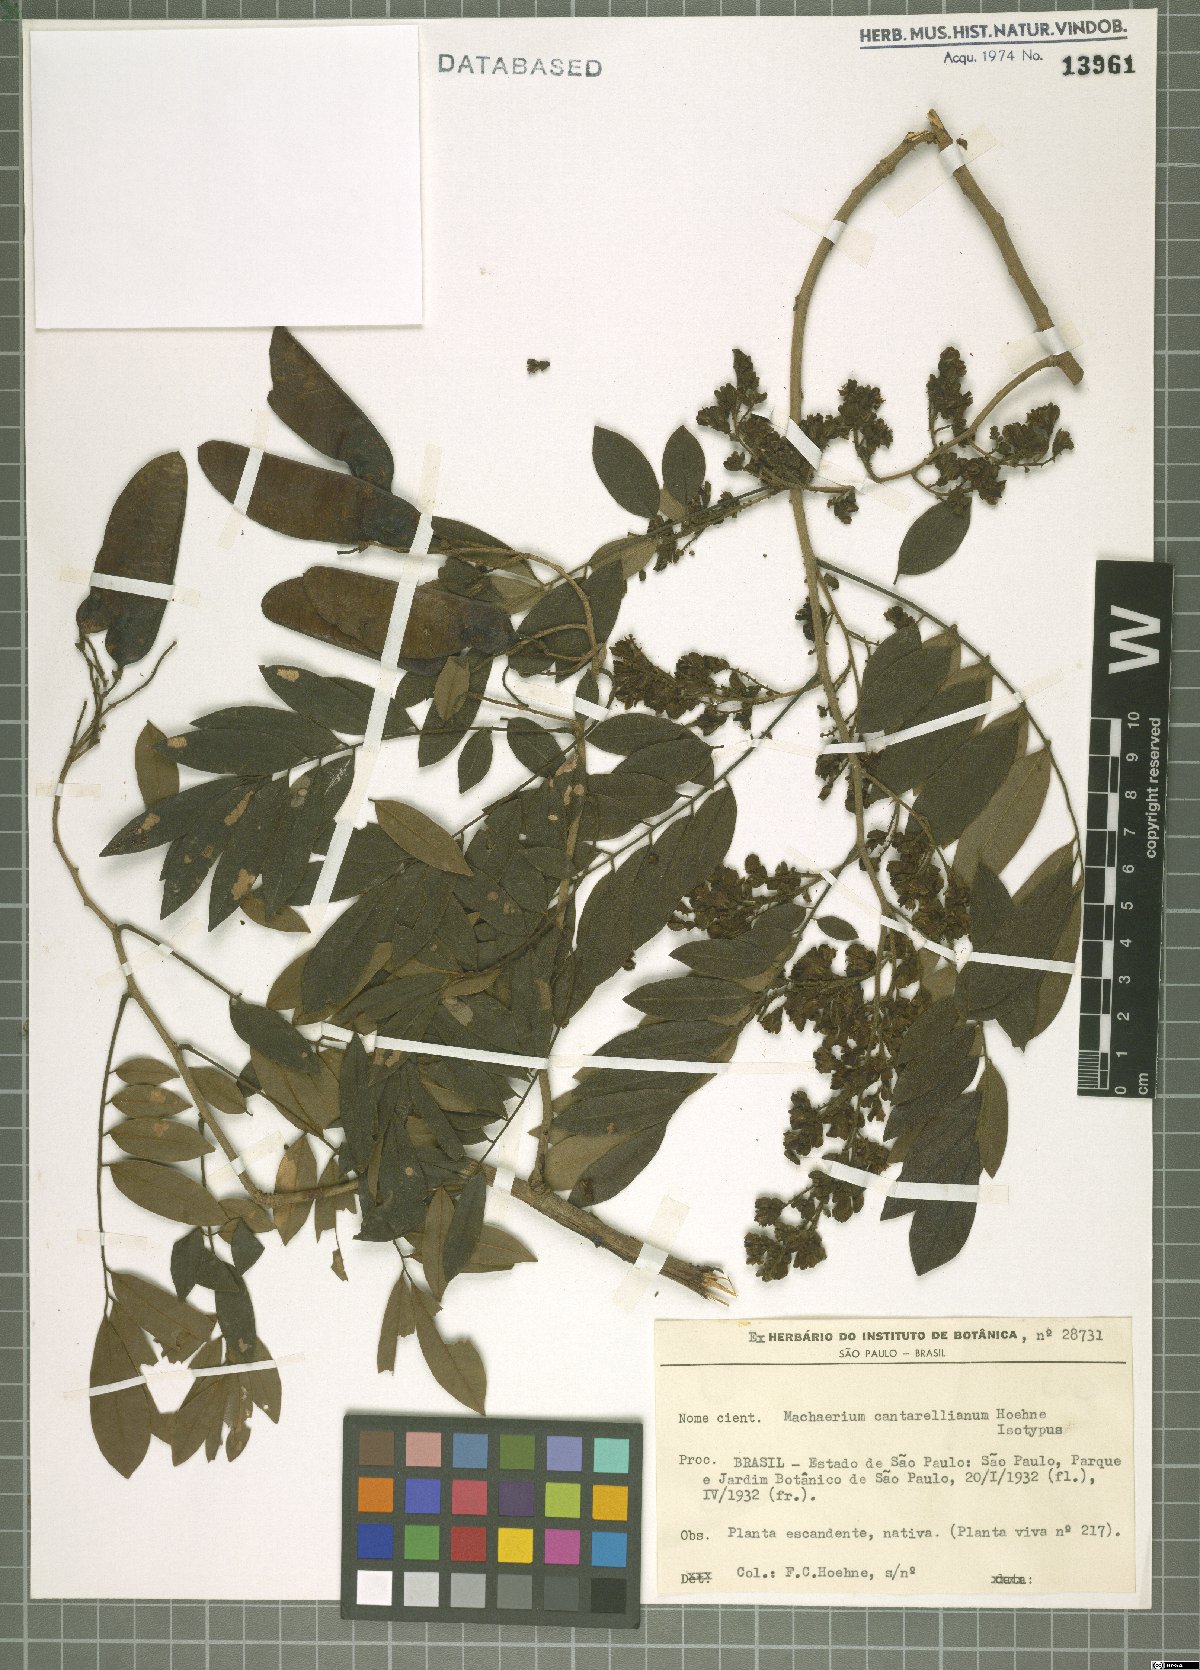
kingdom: Plantae
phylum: Tracheophyta
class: Magnoliopsida
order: Fabales
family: Fabaceae
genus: Machaerium
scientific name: Machaerium cantarellianum
